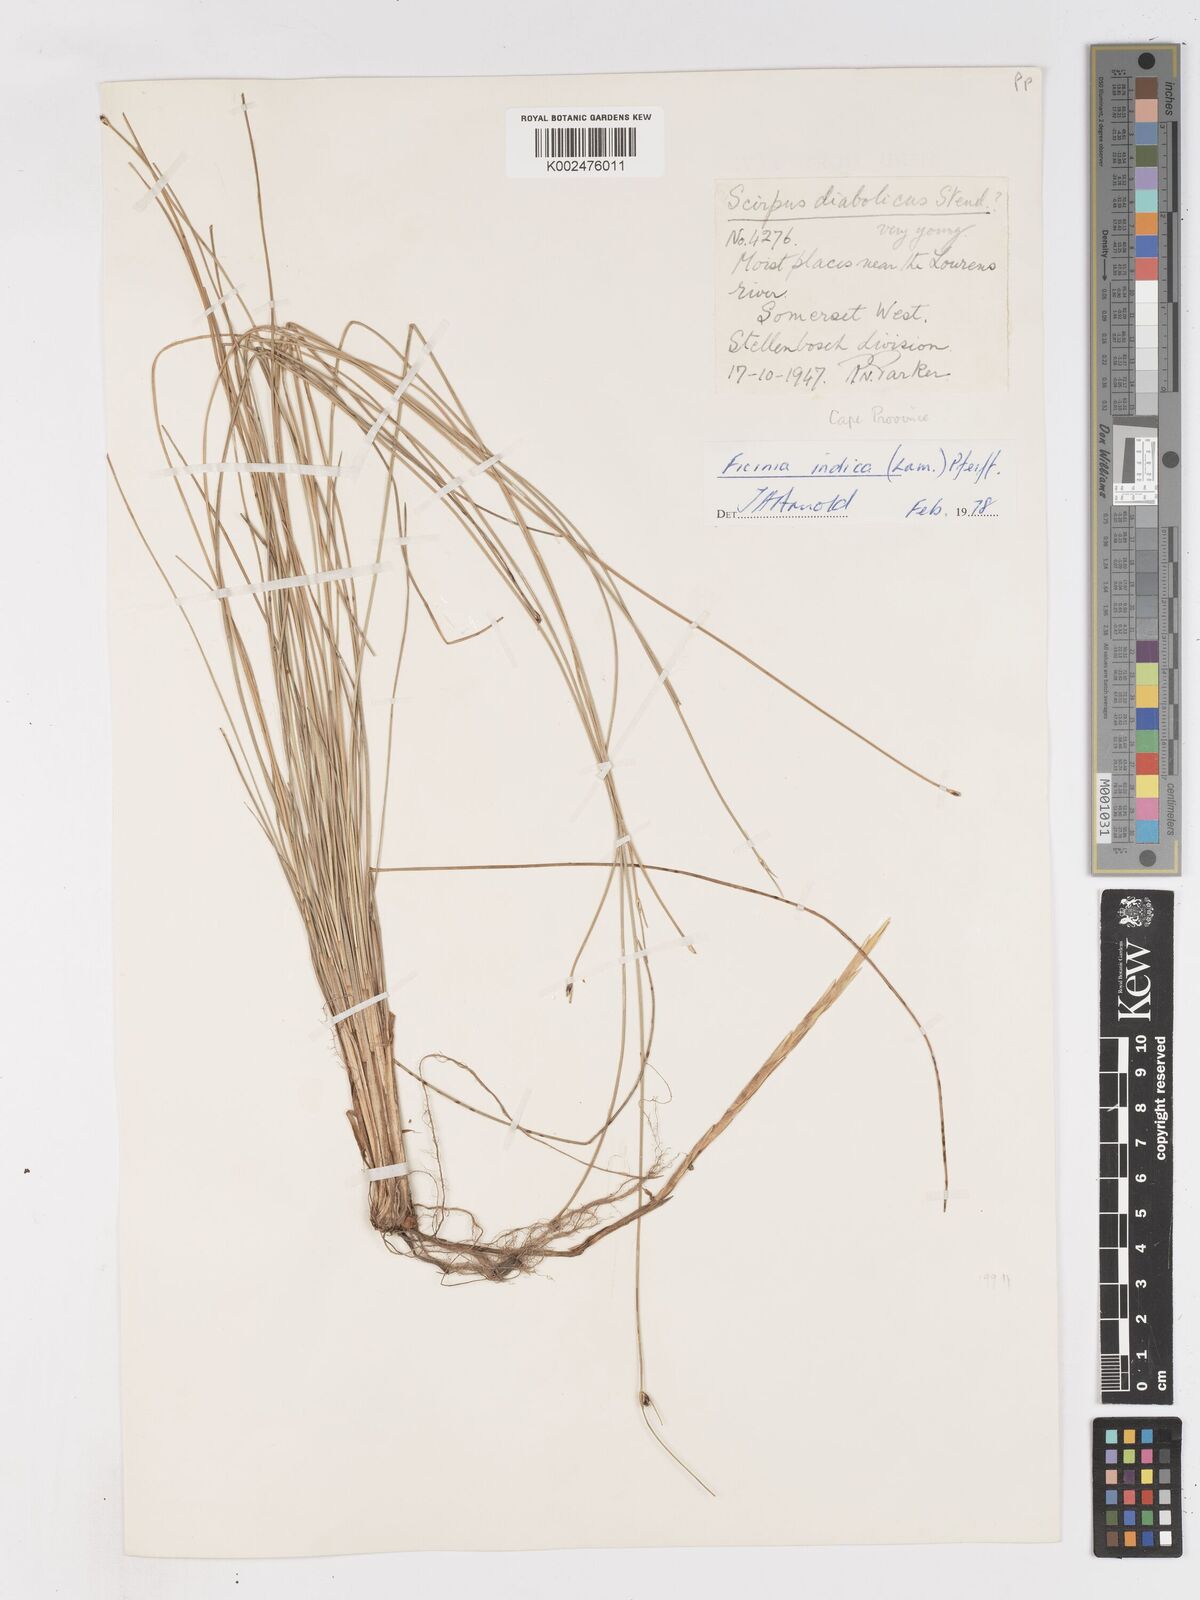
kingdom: Plantae
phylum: Tracheophyta
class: Liliopsida
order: Poales
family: Cyperaceae
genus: Ficinia
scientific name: Ficinia indica
